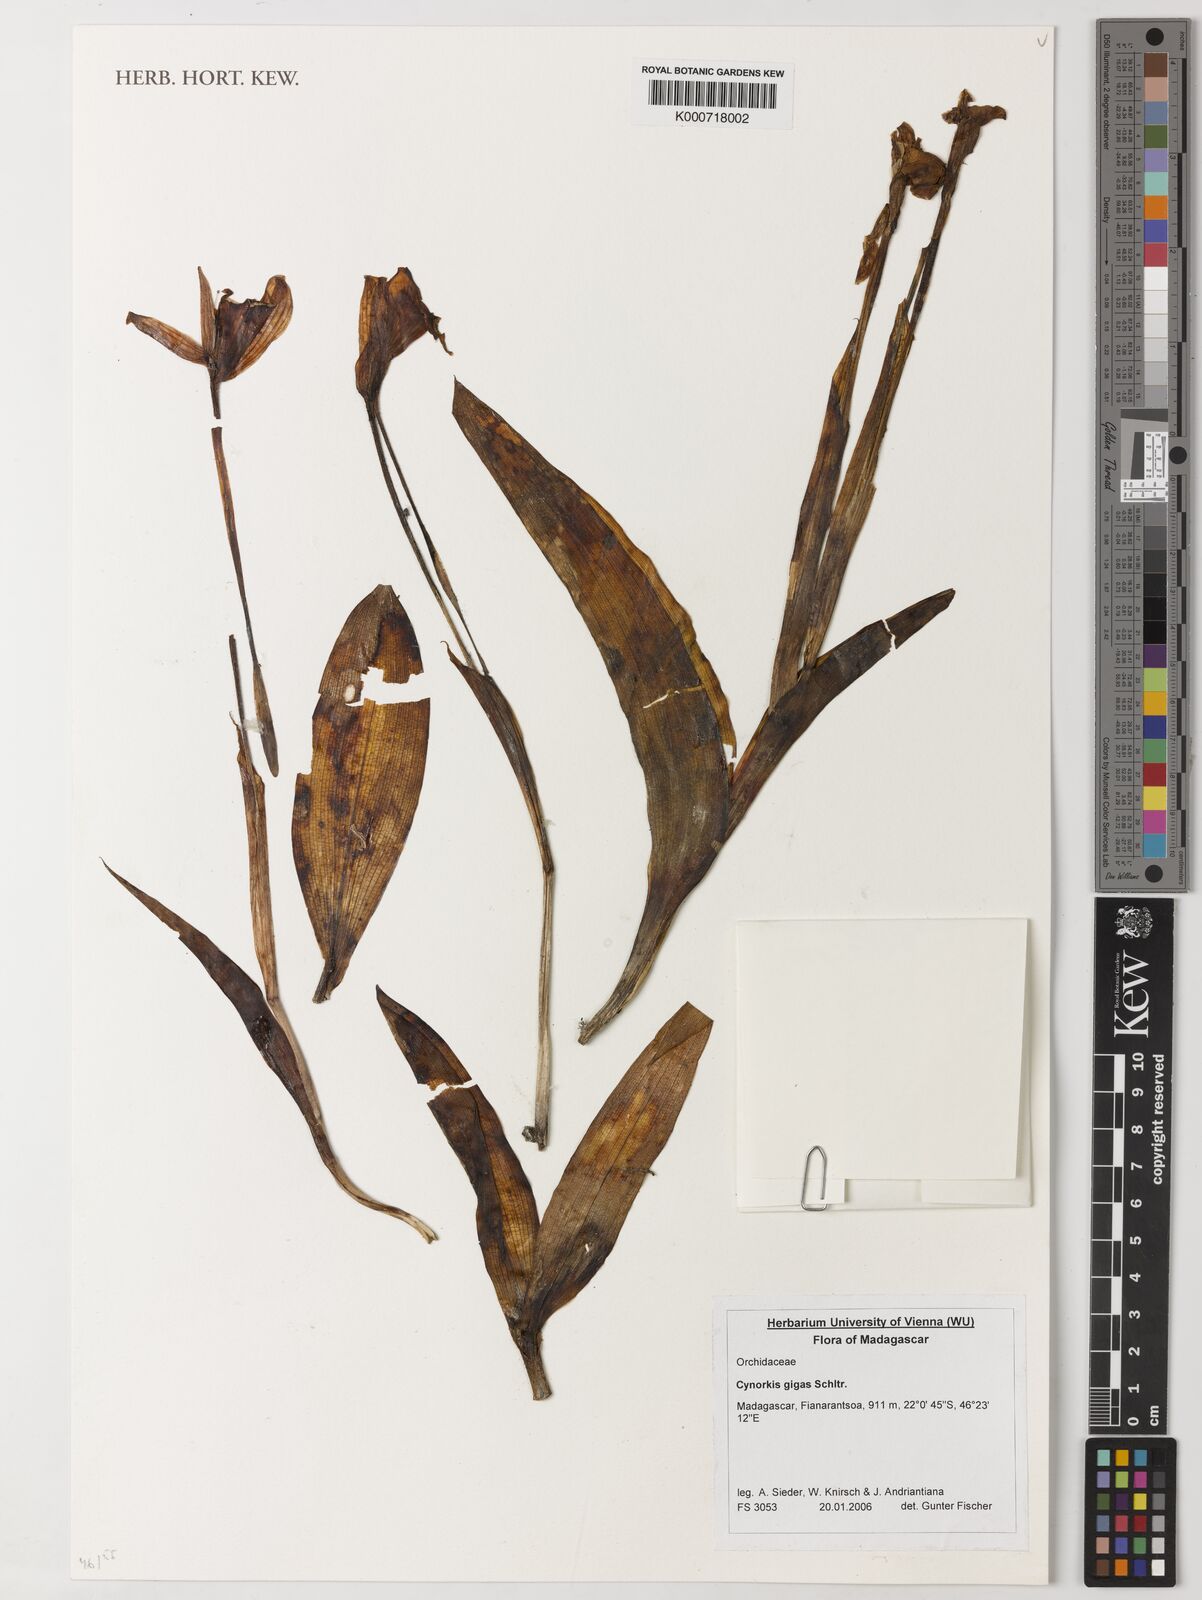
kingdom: Plantae
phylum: Tracheophyta
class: Liliopsida
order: Asparagales
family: Orchidaceae
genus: Cynorkis
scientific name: Cynorkis gigas
